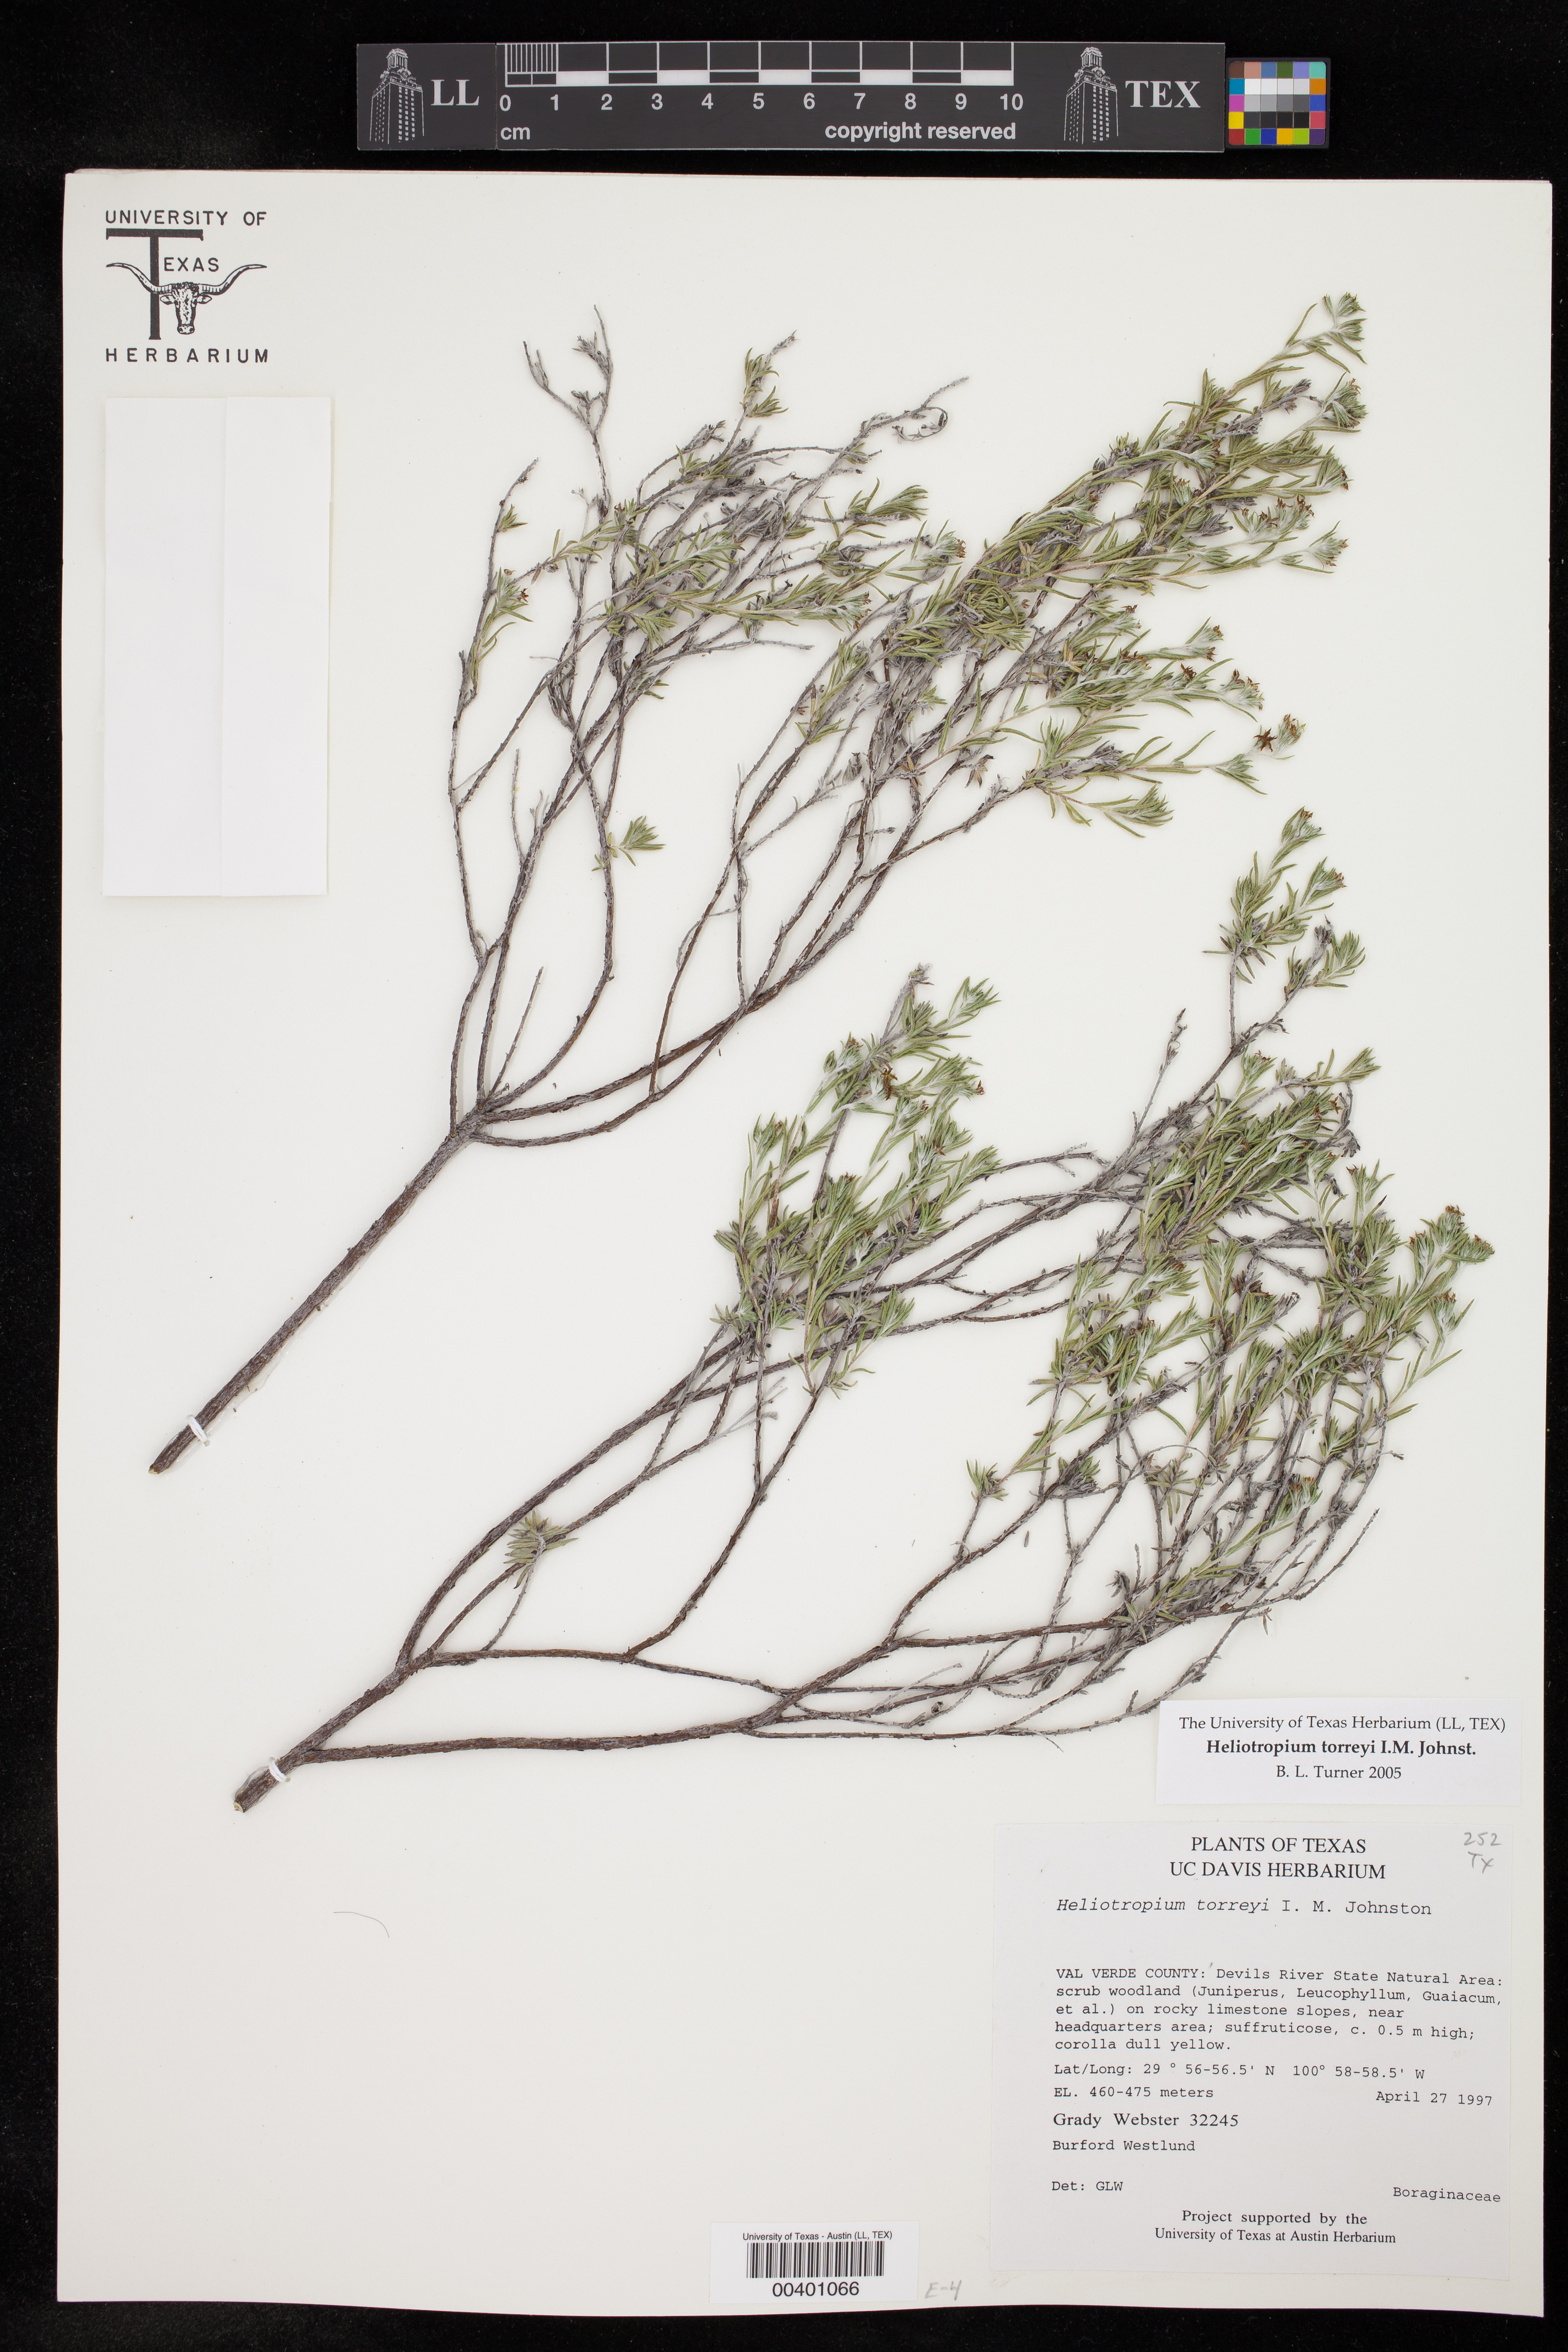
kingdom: Plantae
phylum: Tracheophyta
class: Magnoliopsida
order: Boraginales
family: Heliotropiaceae
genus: Euploca
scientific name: Euploca torreyi
